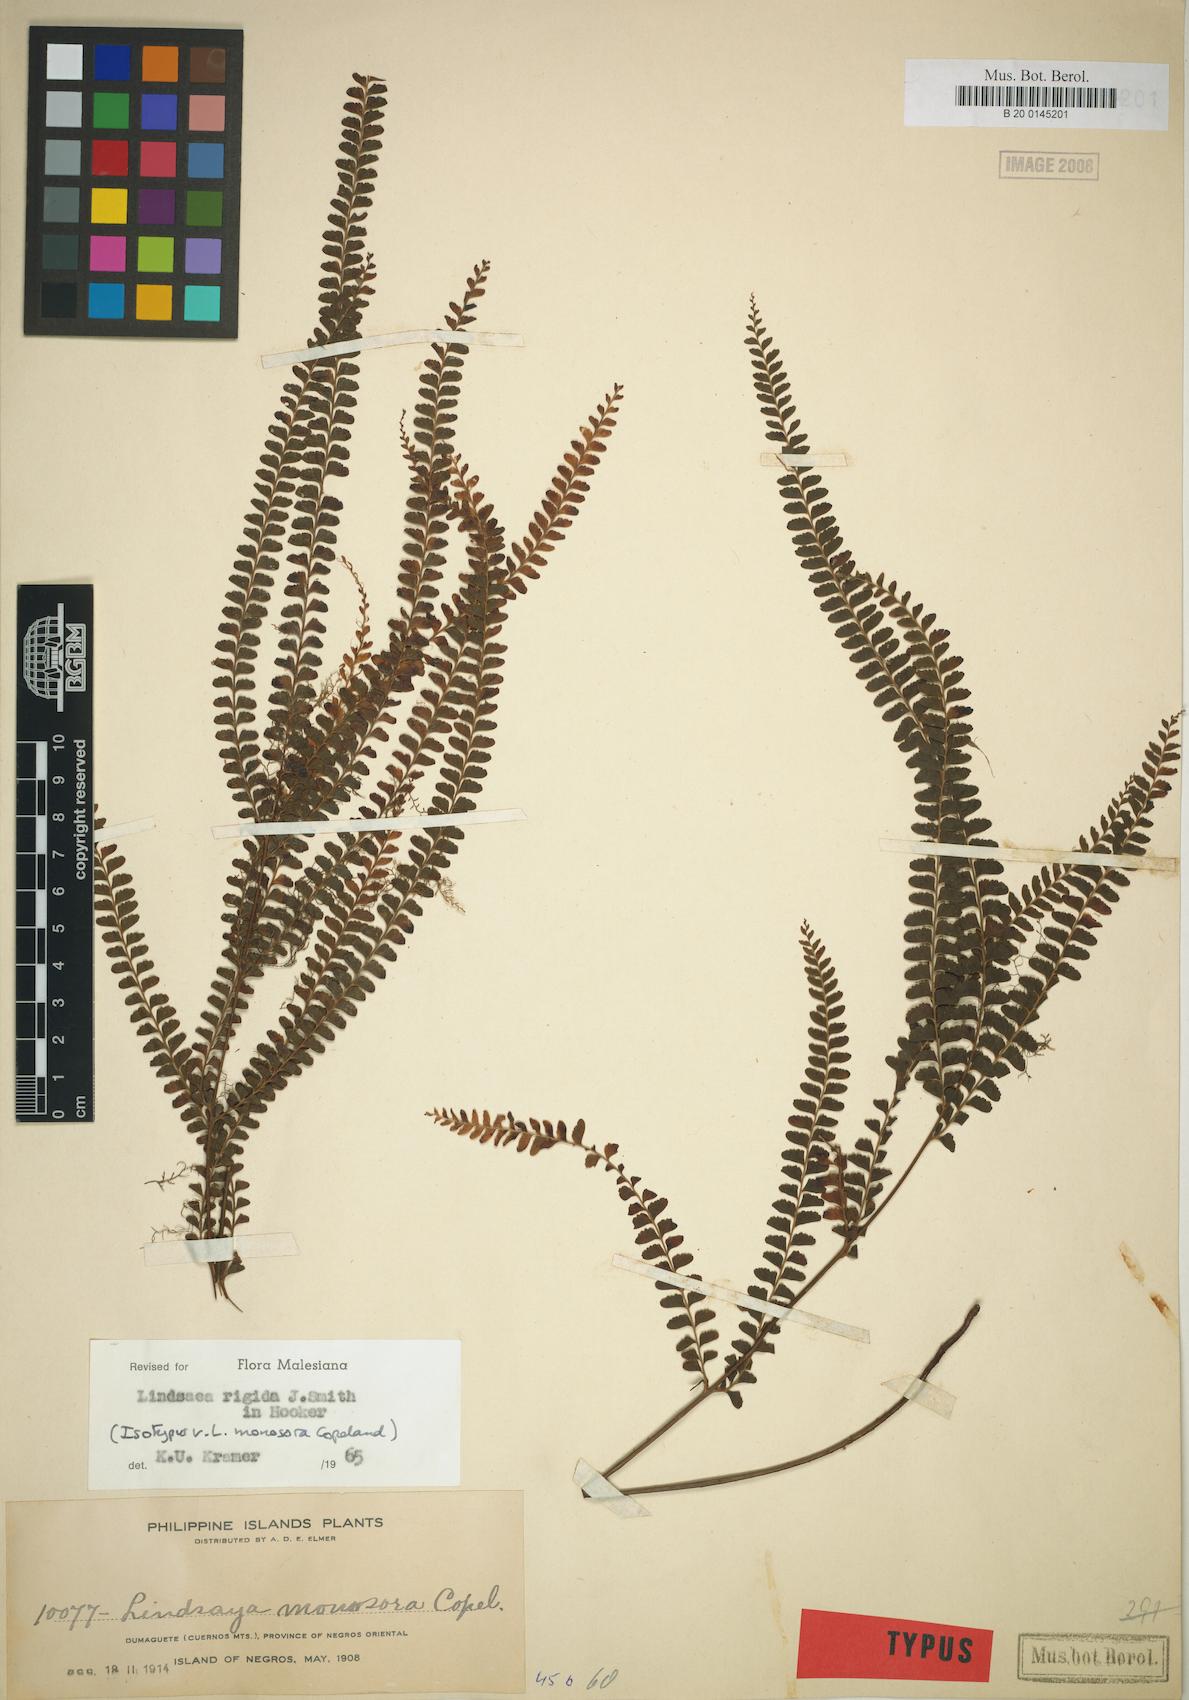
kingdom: Plantae
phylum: Tracheophyta
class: Polypodiopsida
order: Polypodiales
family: Lindsaeaceae
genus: Lindsaea
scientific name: Lindsaea rigida
